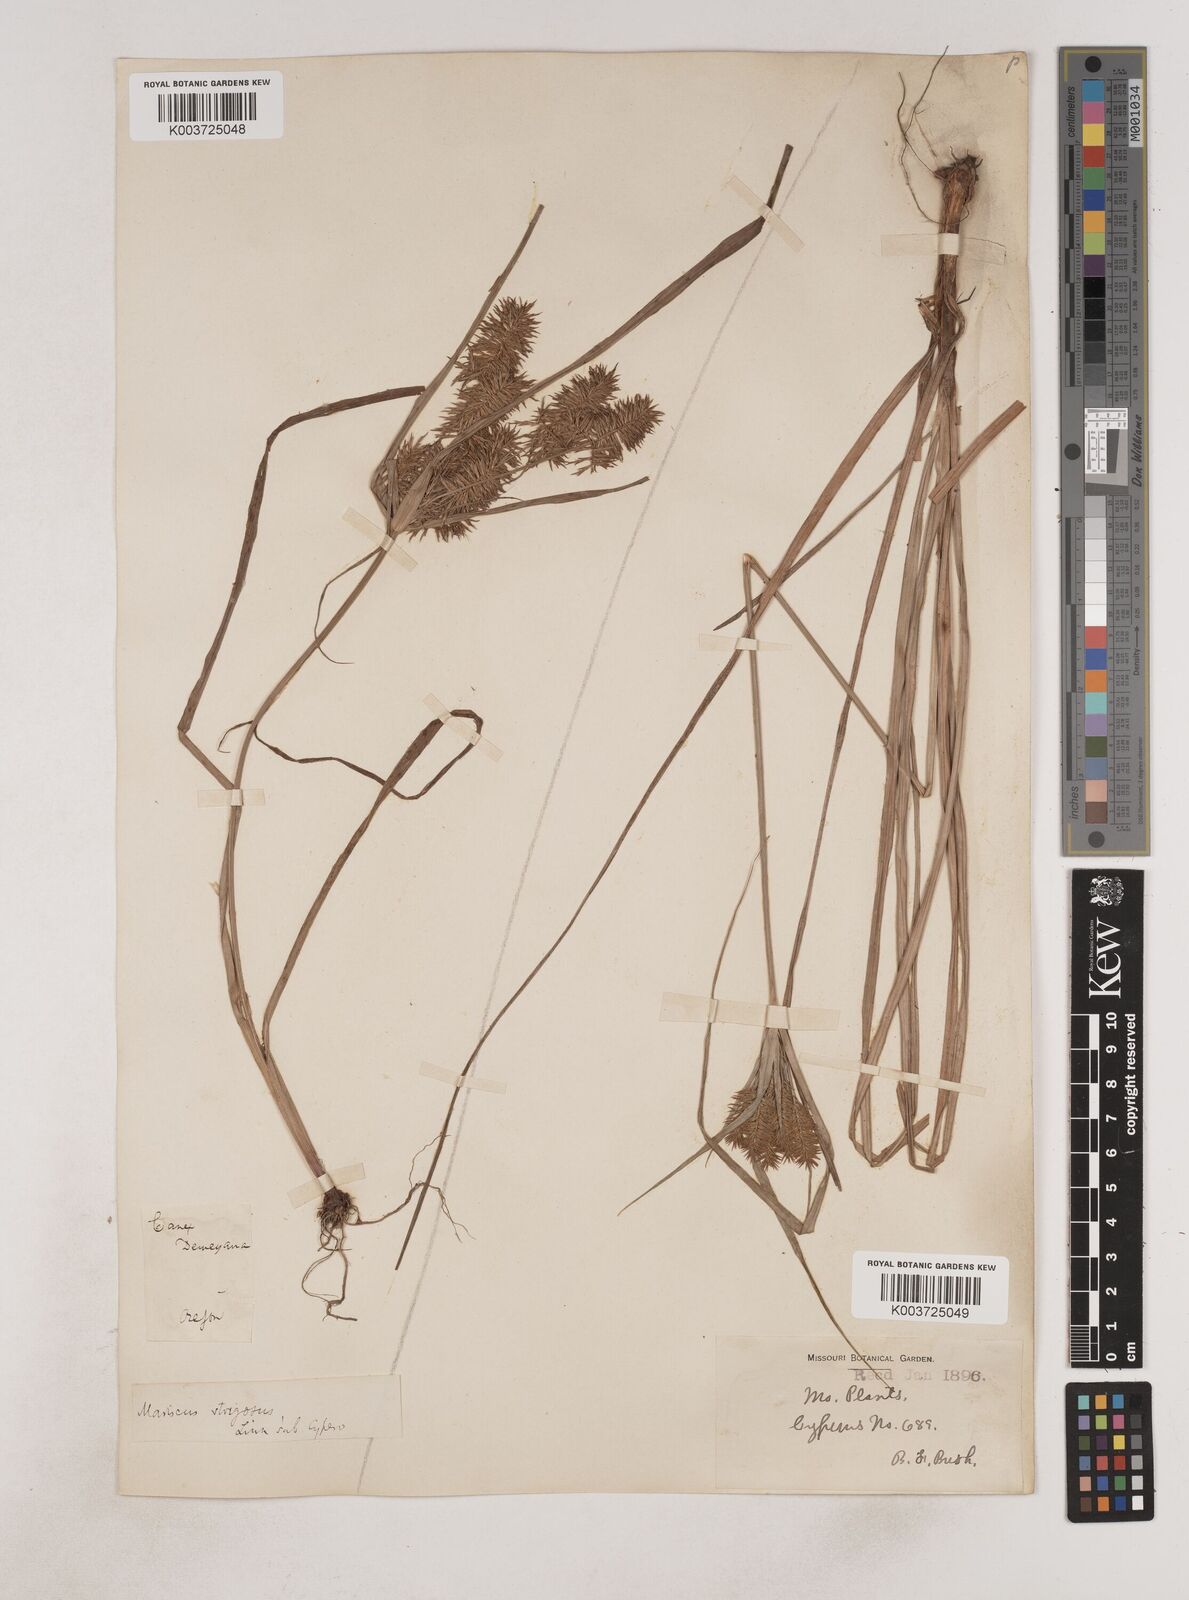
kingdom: Plantae
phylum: Tracheophyta
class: Liliopsida
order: Poales
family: Cyperaceae
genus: Cyperus
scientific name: Cyperus strigosus
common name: False nutsedge
